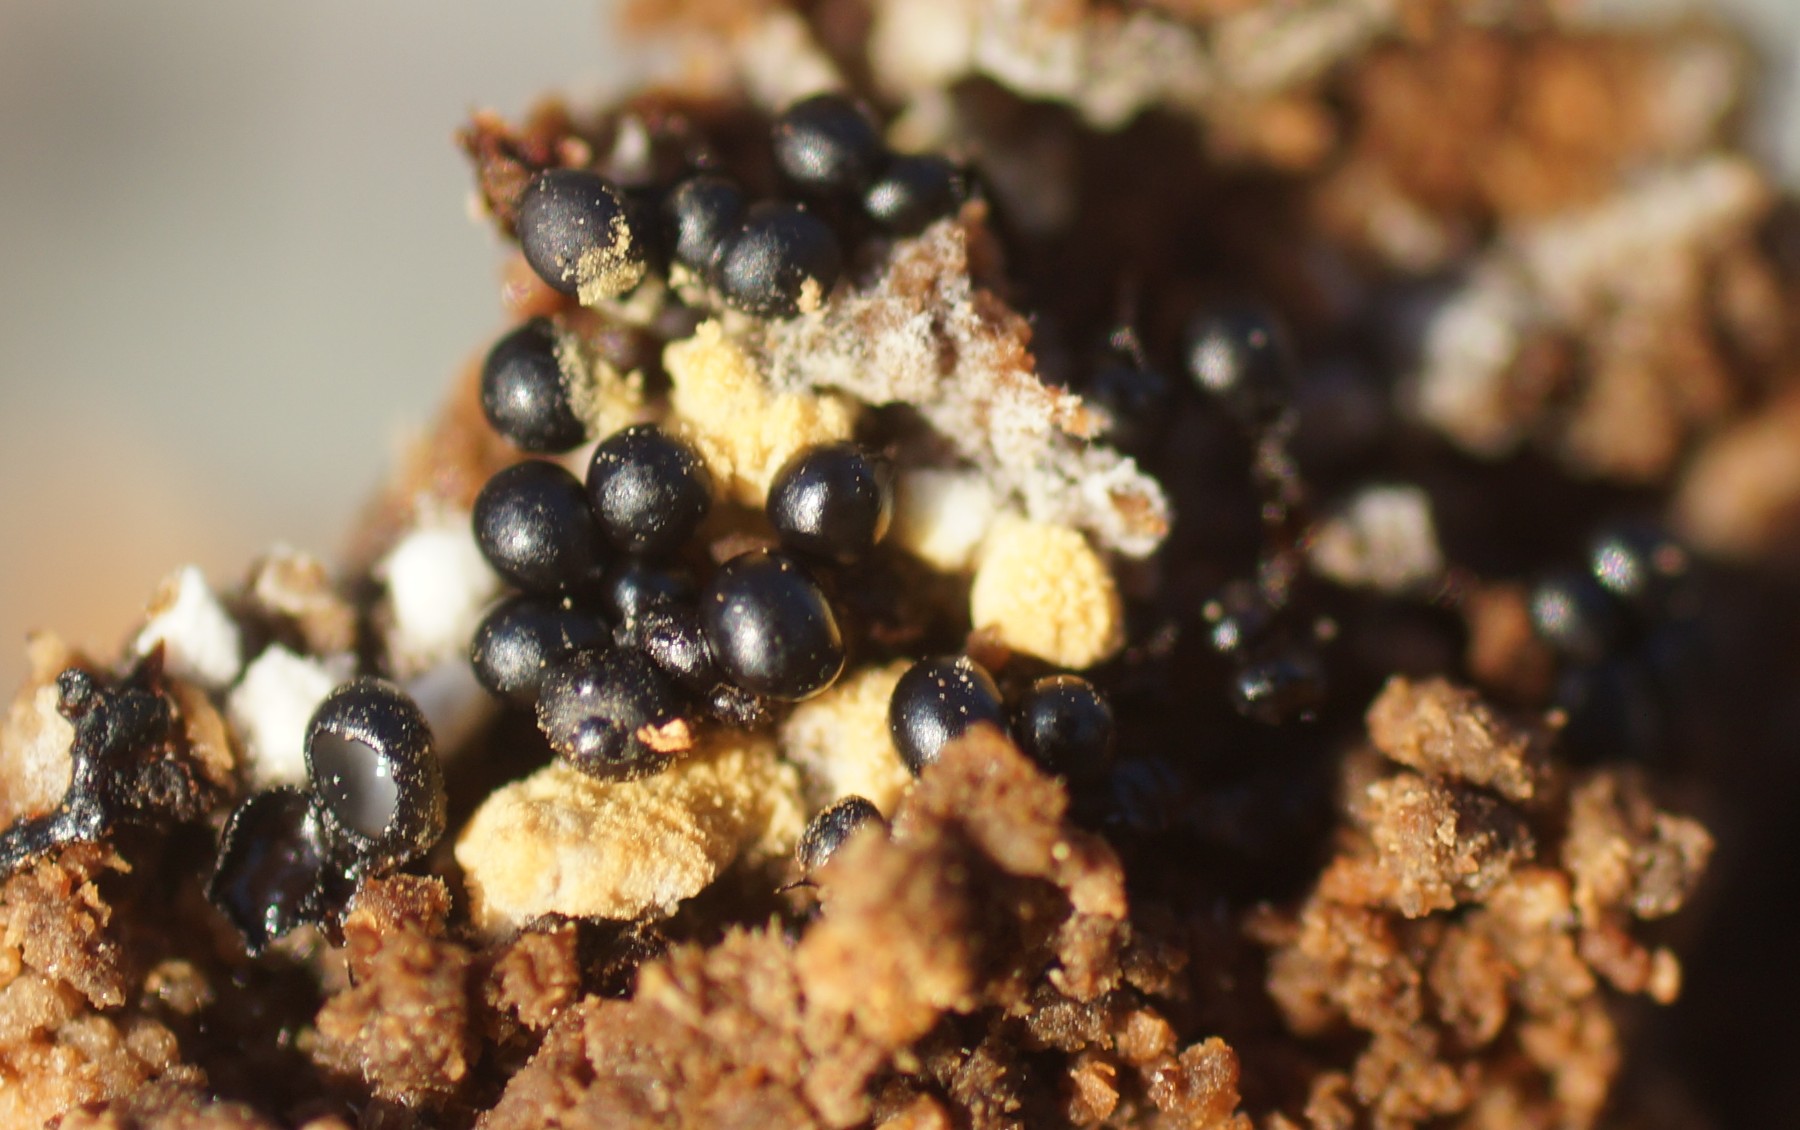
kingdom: Protozoa
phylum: Mycetozoa
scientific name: Mycetozoa
